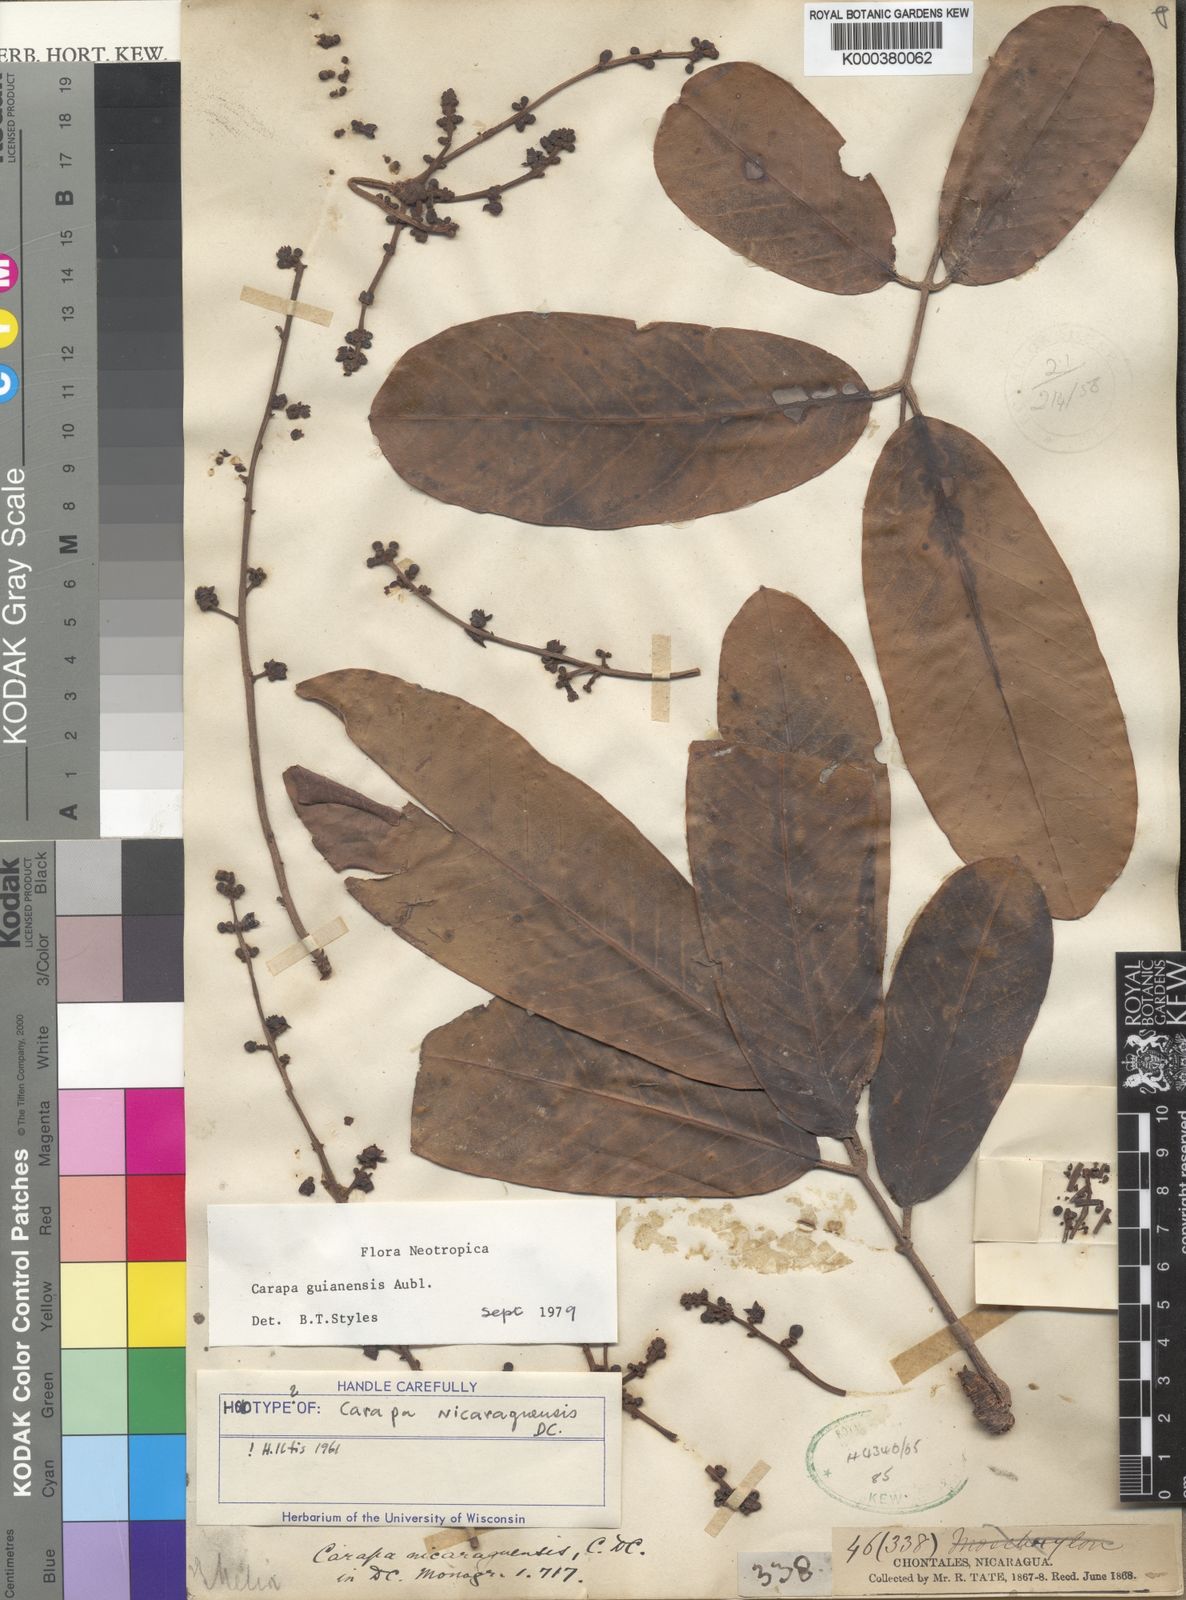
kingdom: Plantae
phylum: Tracheophyta
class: Magnoliopsida
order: Sapindales
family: Meliaceae
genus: Carapa
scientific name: Carapa guianensis
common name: Crabwood
